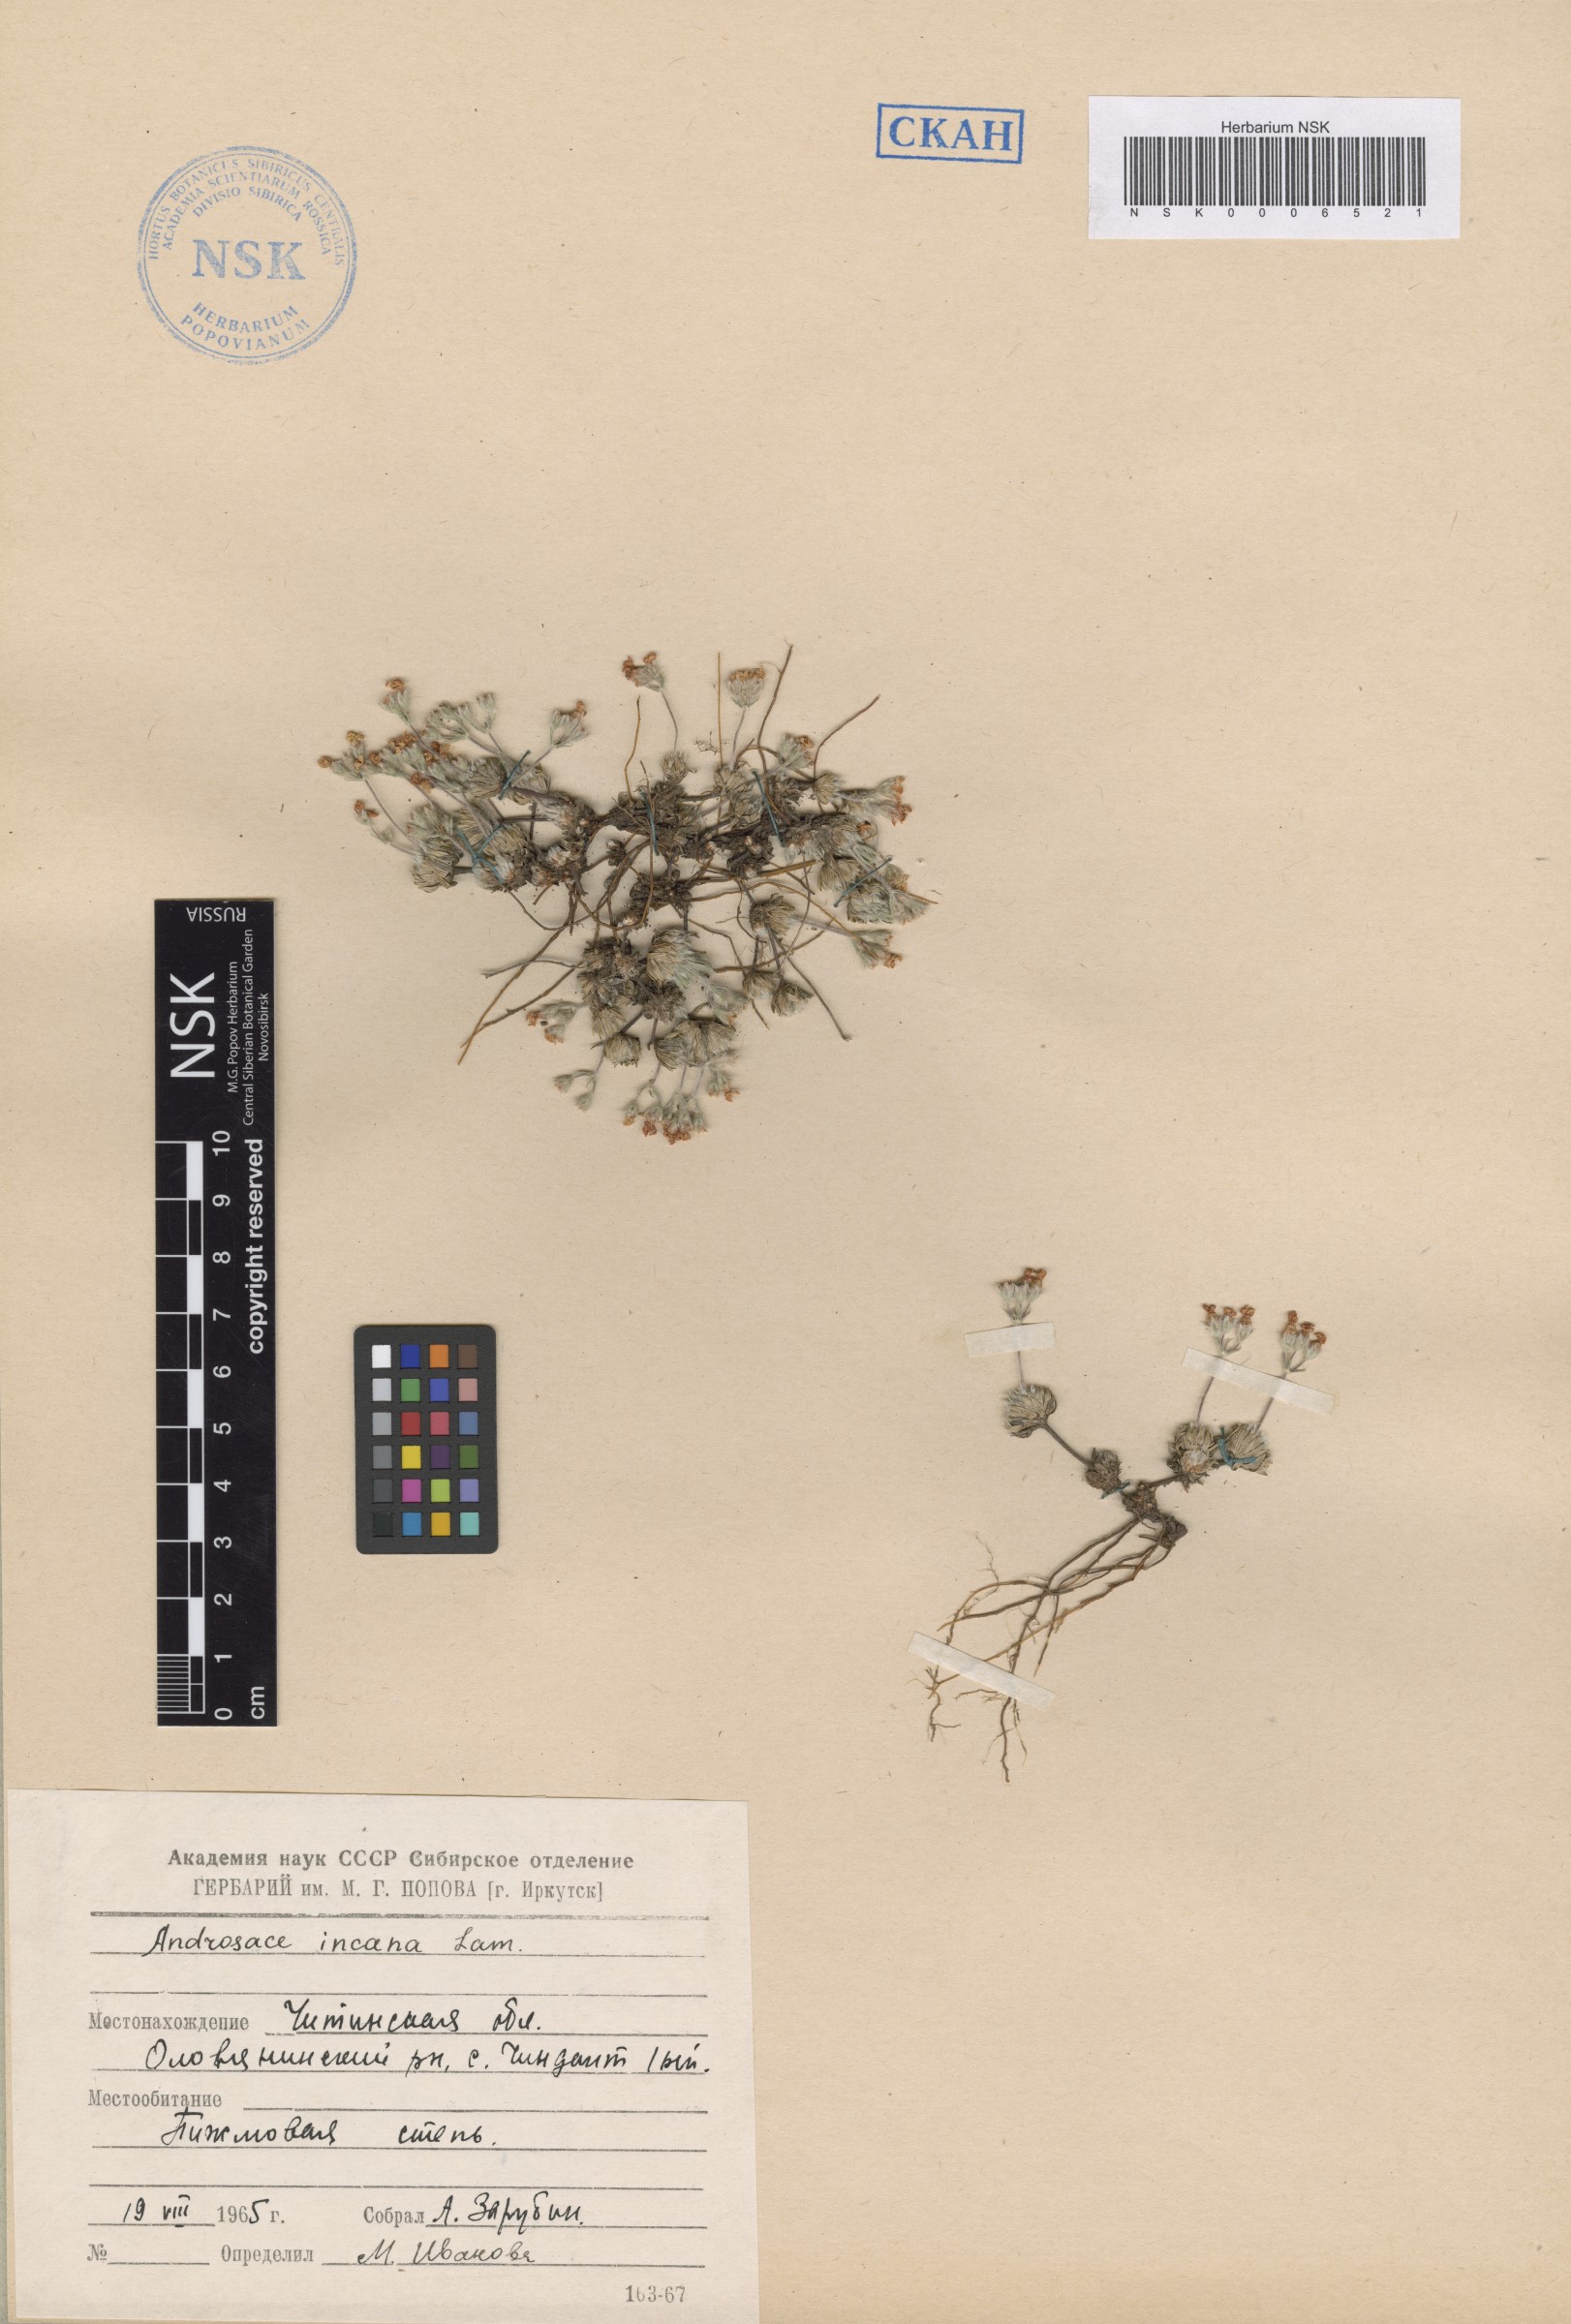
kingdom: Plantae
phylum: Tracheophyta
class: Magnoliopsida
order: Ericales
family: Primulaceae
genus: Androsace
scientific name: Androsace incana
